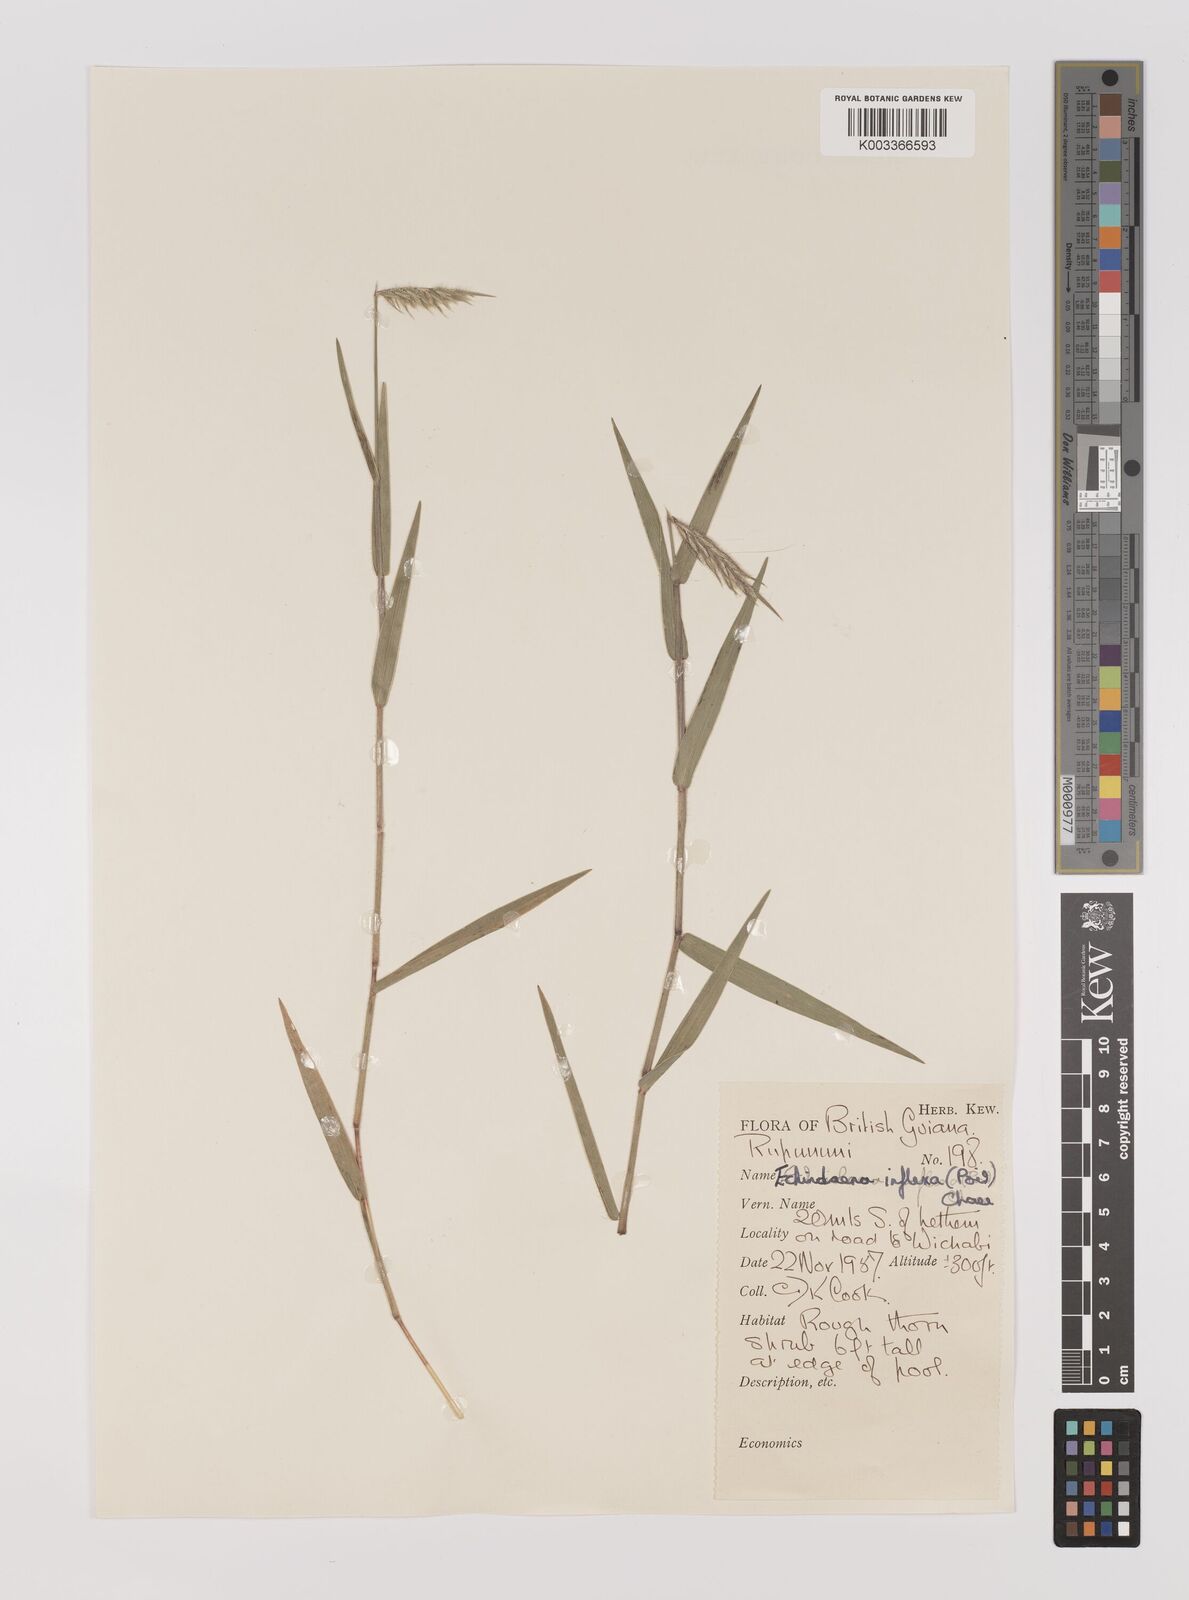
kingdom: Plantae
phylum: Tracheophyta
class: Liliopsida
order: Poales
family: Poaceae
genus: Echinolaena
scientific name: Echinolaena inflexa
